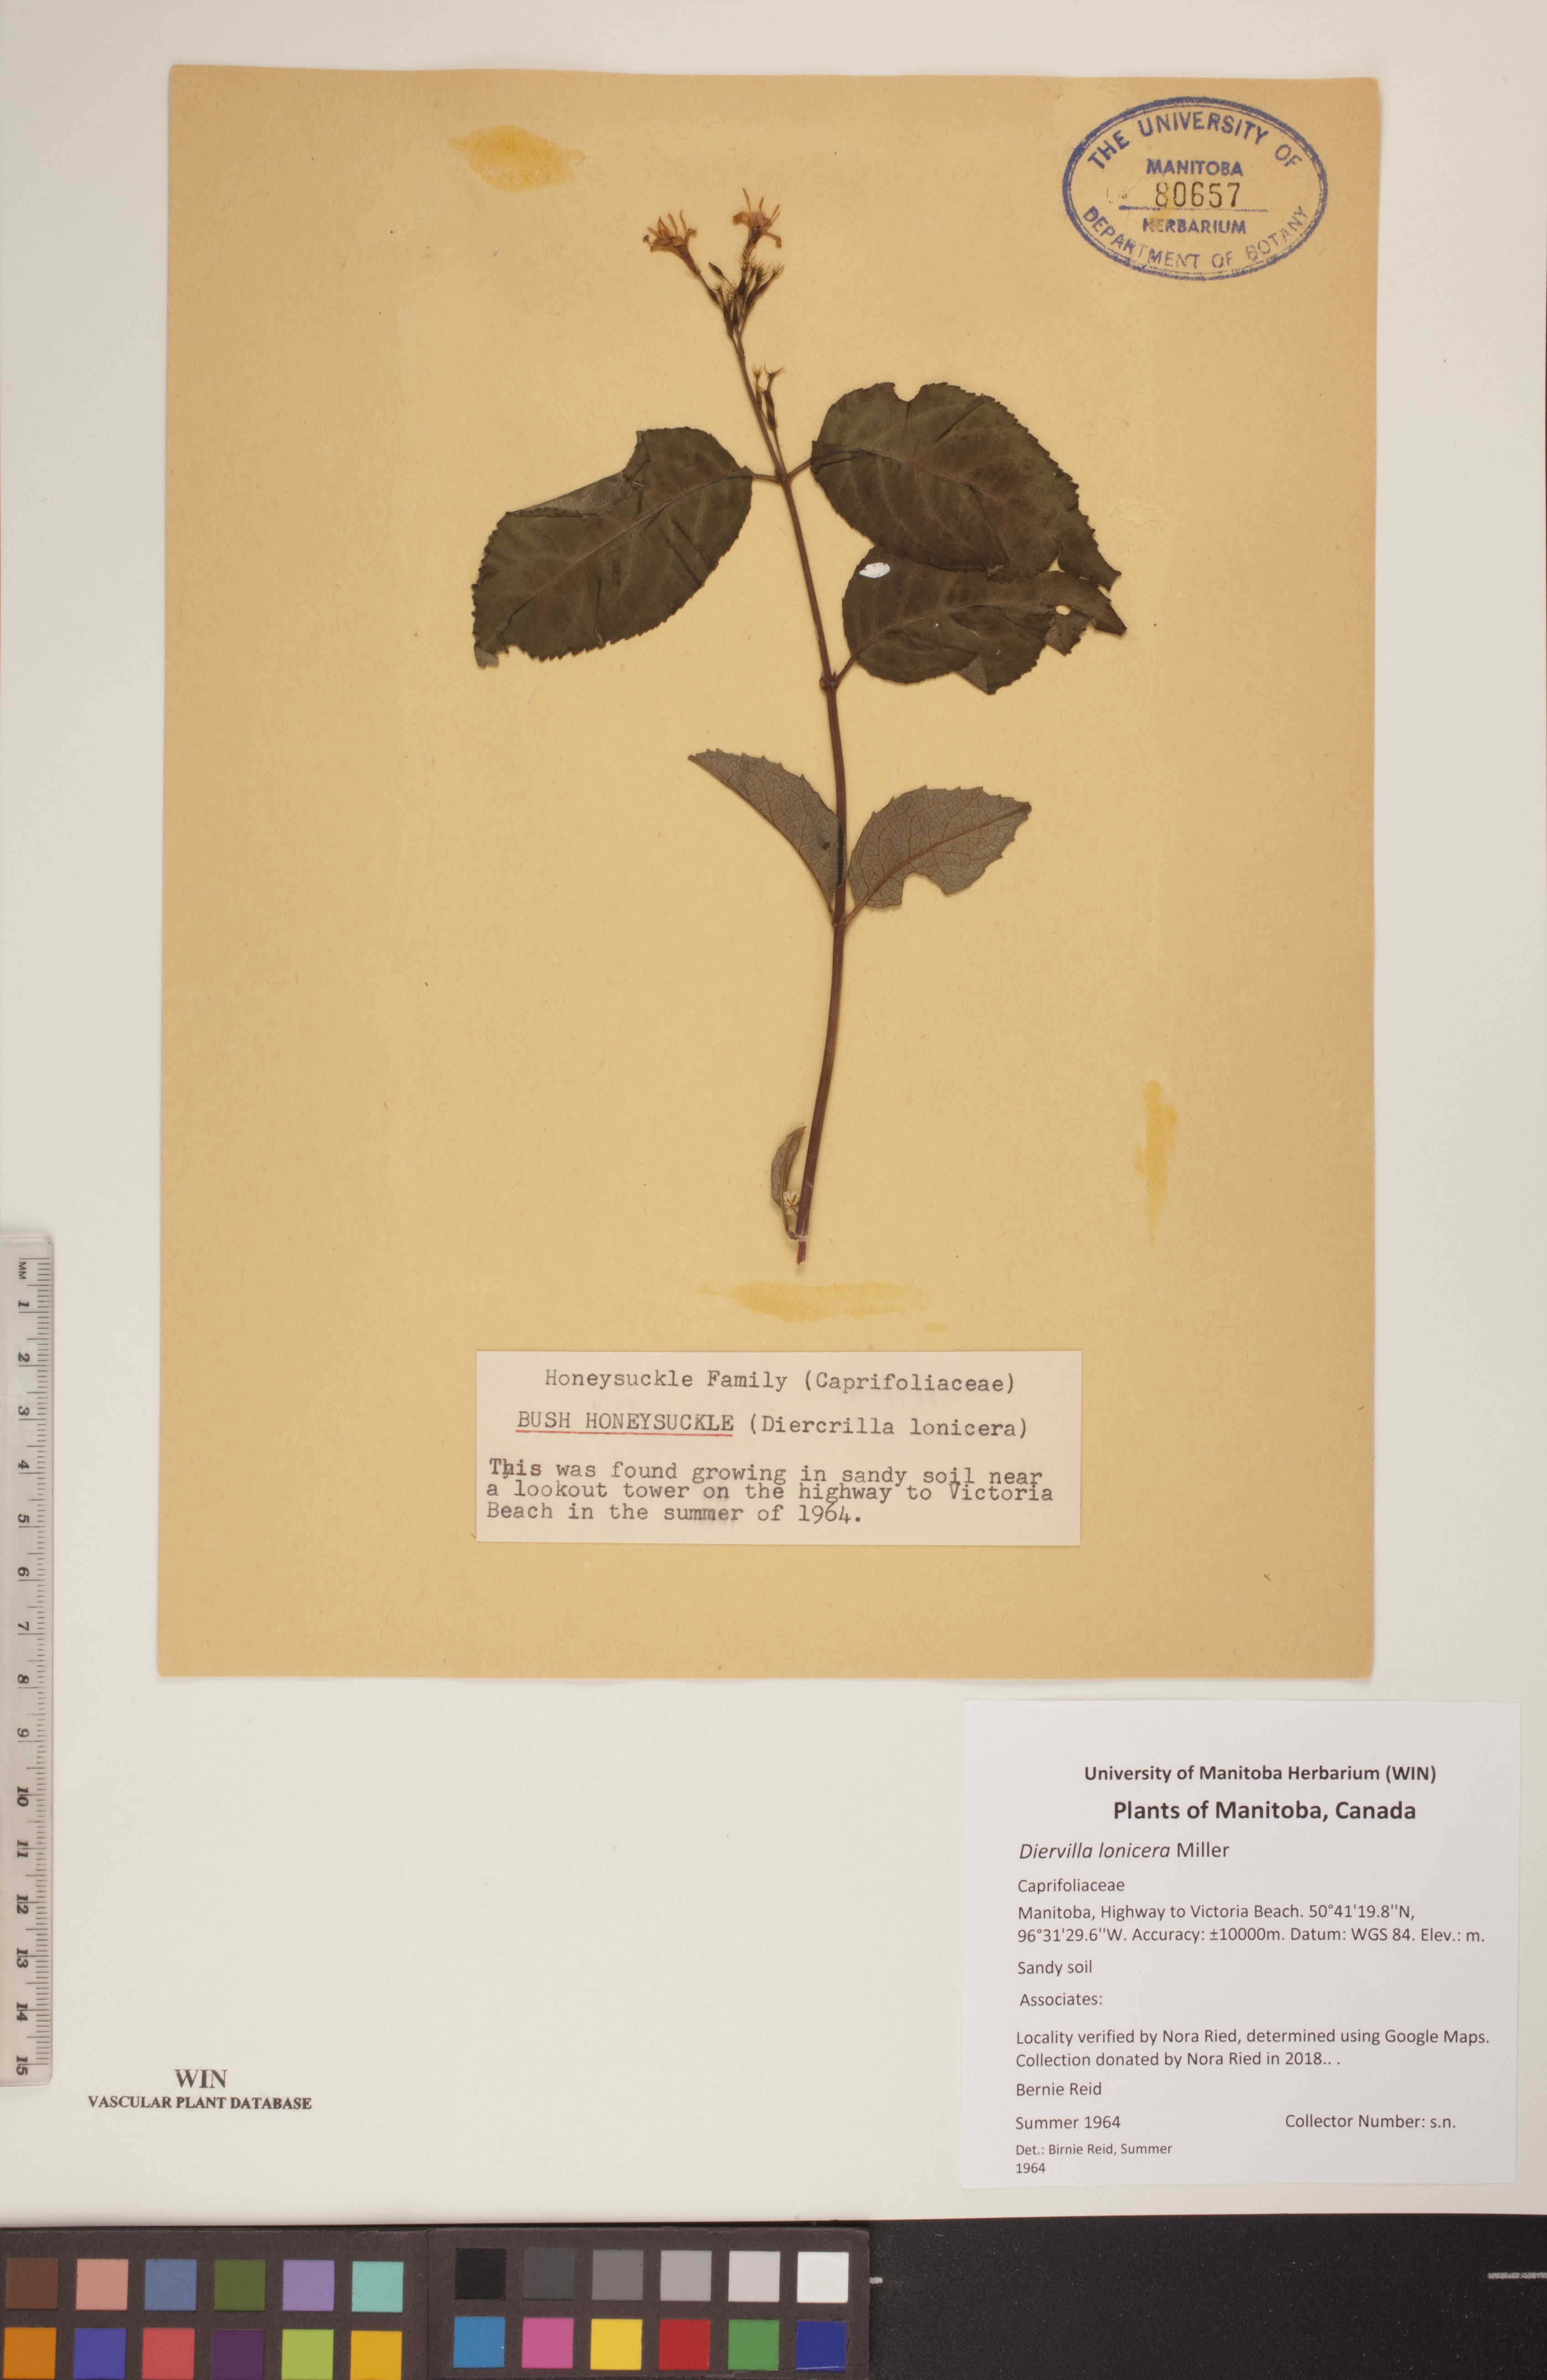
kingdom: Plantae
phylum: Tracheophyta
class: Magnoliopsida
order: Dipsacales
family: Caprifoliaceae
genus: Diervilla
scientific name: Diervilla lonicera
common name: Bush-honeysuckle
